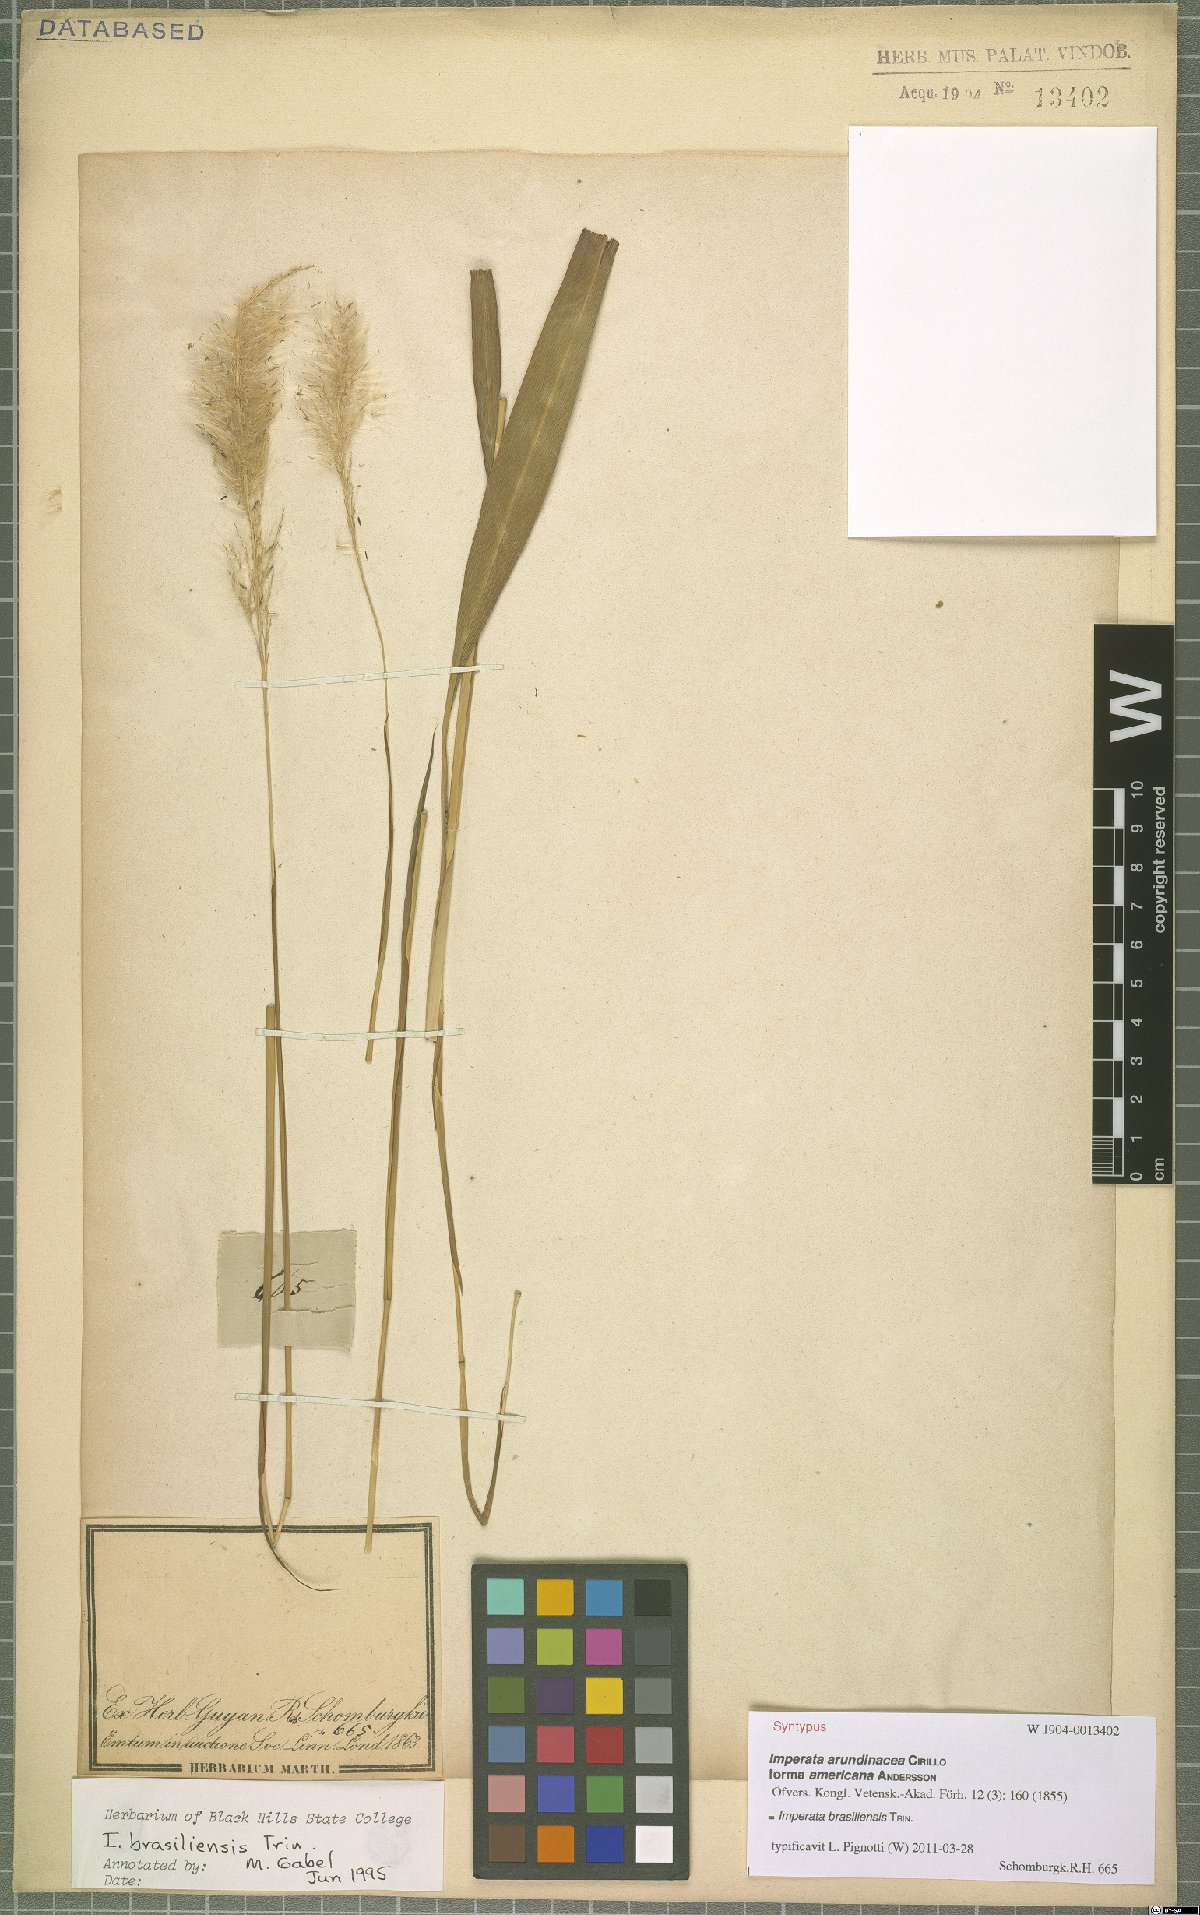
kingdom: Plantae
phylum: Tracheophyta
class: Liliopsida
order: Poales
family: Poaceae
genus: Imperata
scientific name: Imperata brasiliensis
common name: Brazilian satintail
